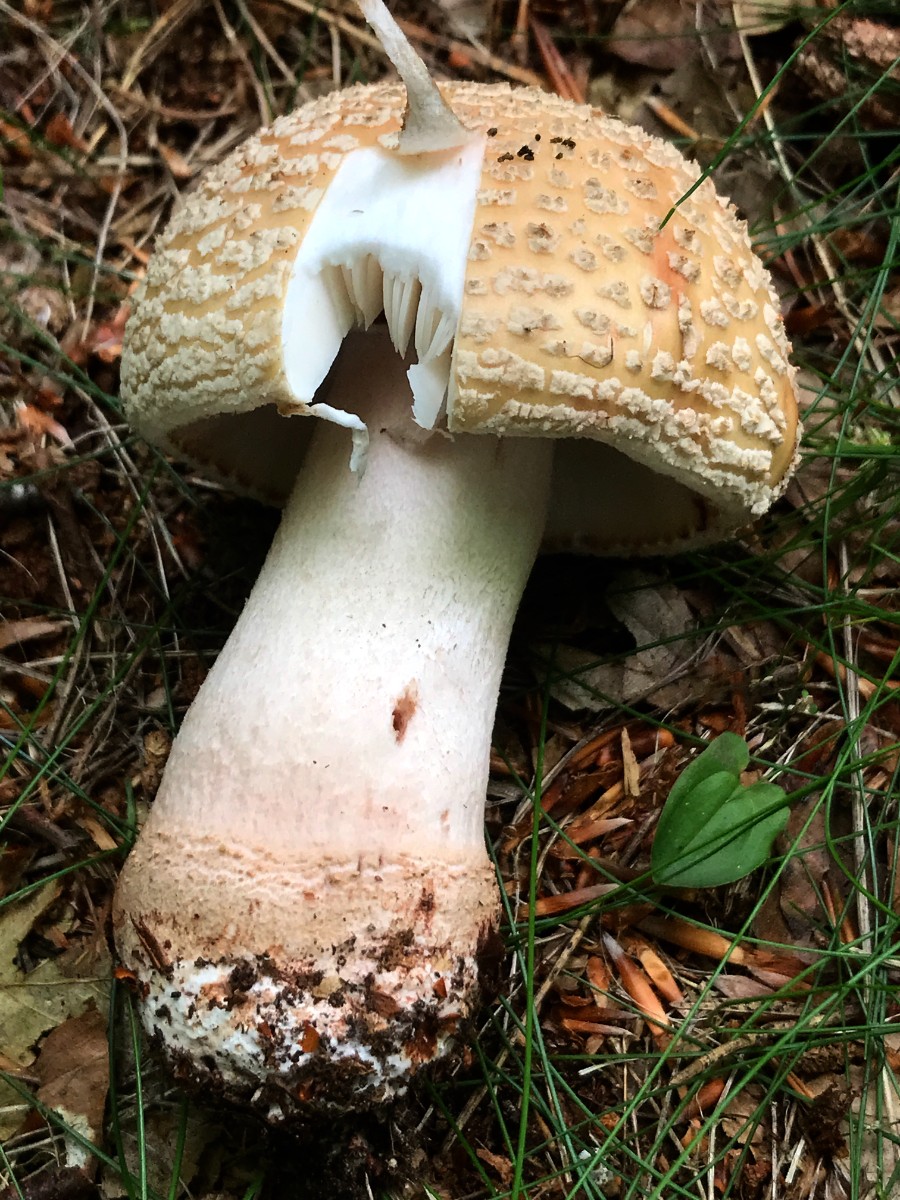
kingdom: Fungi
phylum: Basidiomycota
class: Agaricomycetes
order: Agaricales
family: Amanitaceae
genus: Amanita
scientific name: Amanita rubescens
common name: rødmende fluesvamp
